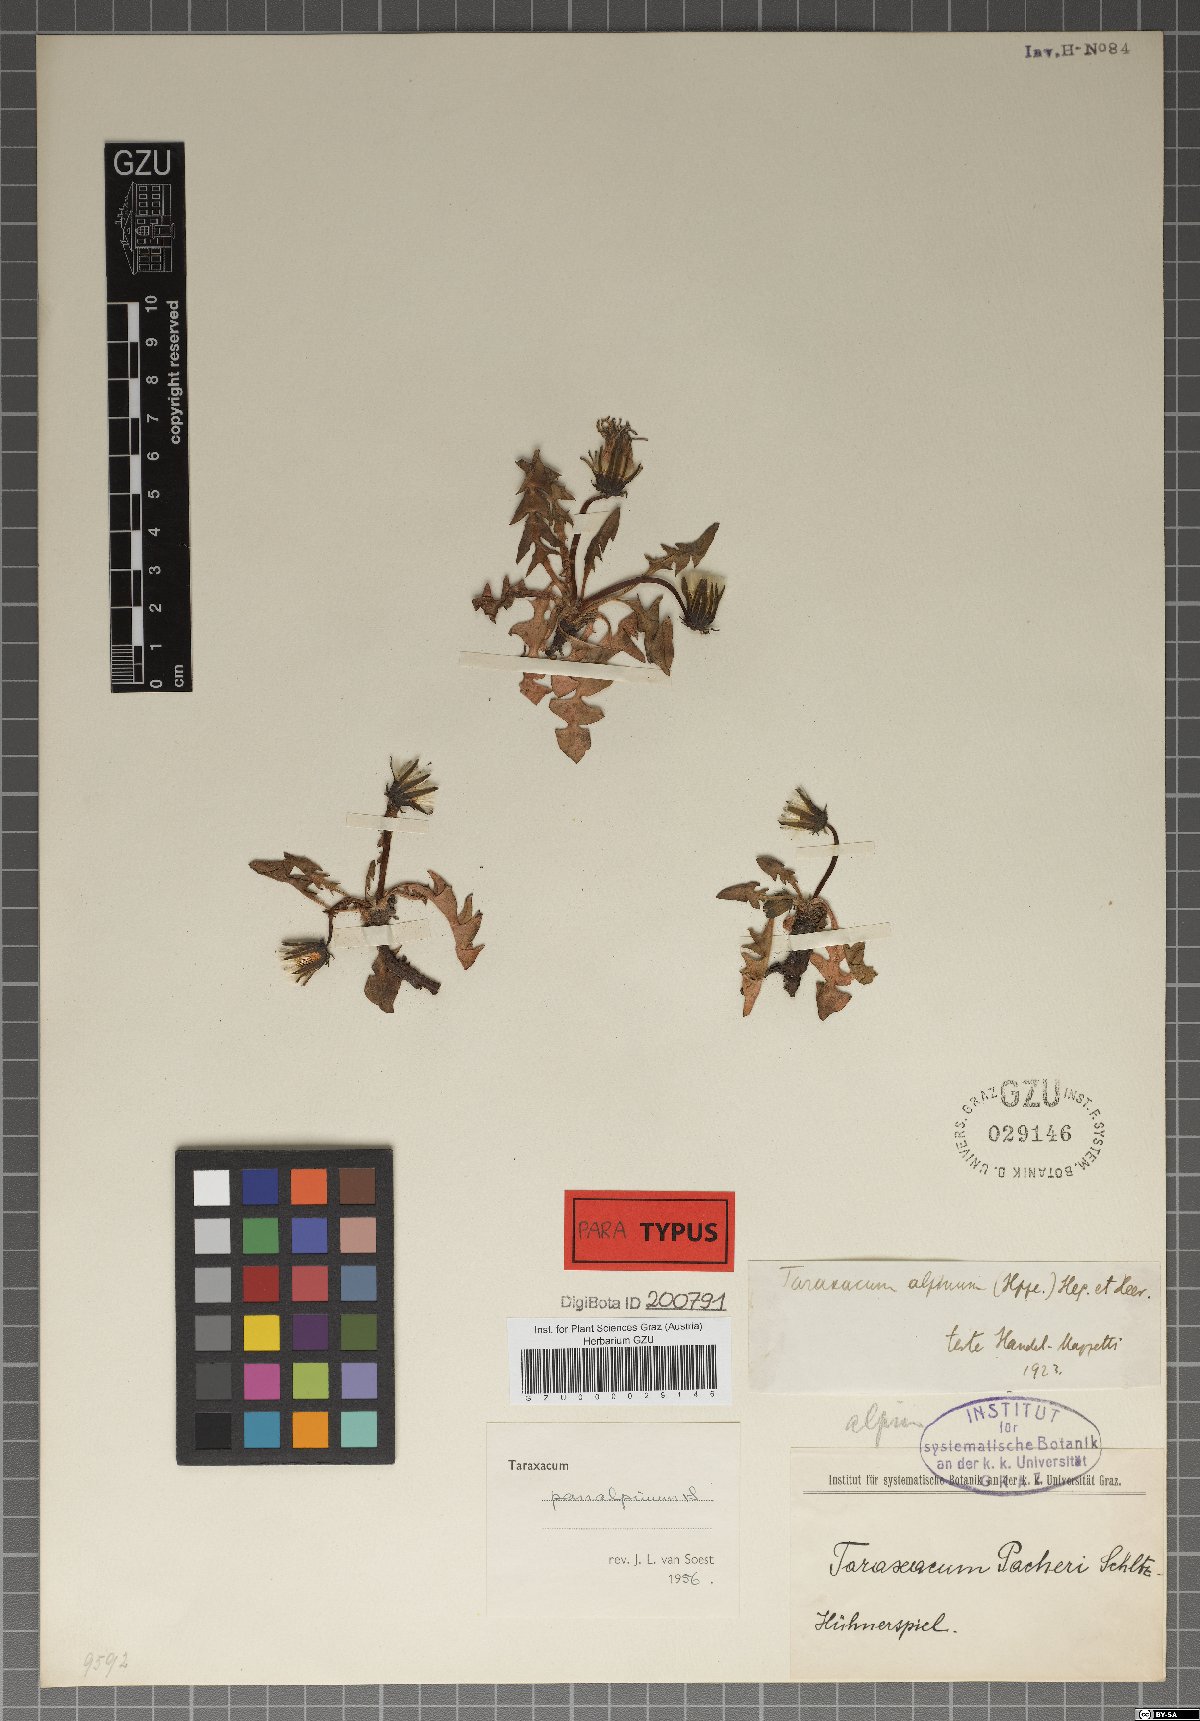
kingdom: Plantae
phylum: Tracheophyta
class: Magnoliopsida
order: Asterales
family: Asteraceae
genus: Taraxacum
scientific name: Taraxacum panalpinum
